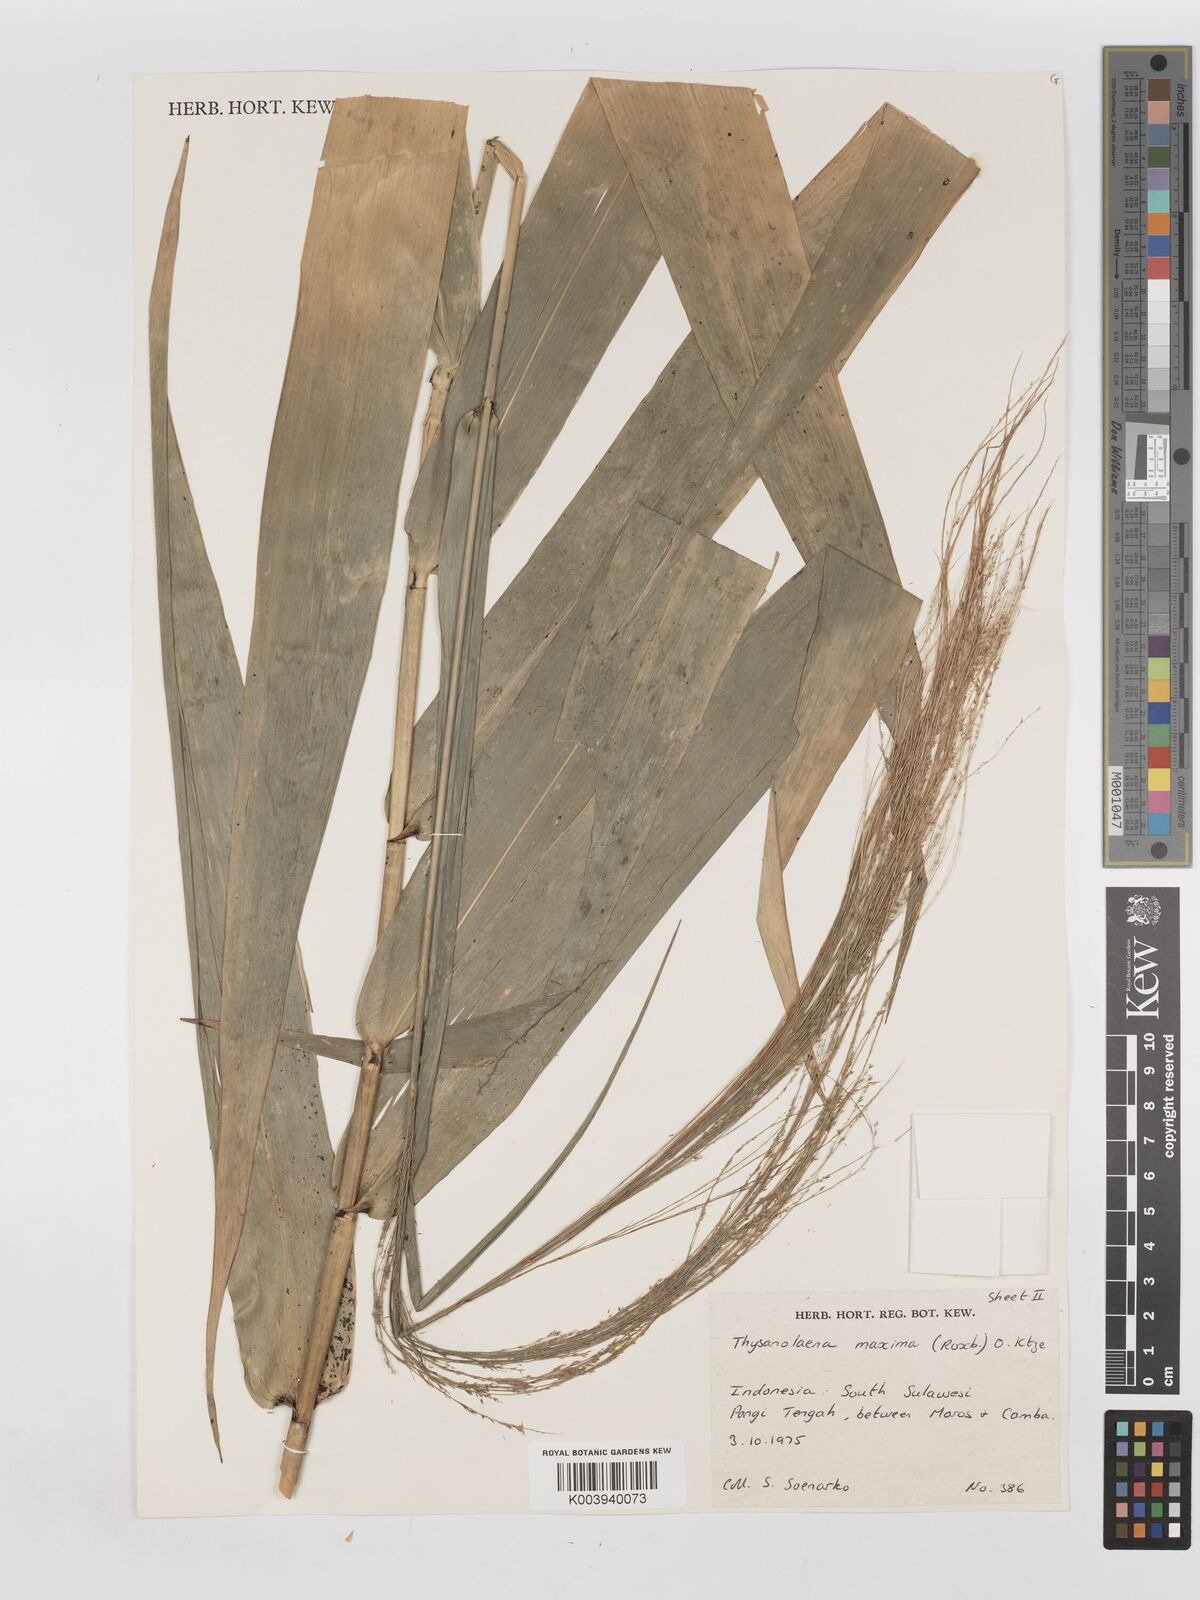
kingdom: Plantae
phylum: Tracheophyta
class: Liliopsida
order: Poales
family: Poaceae
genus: Thysanolaena
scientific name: Thysanolaena latifolia
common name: Tiger grass
